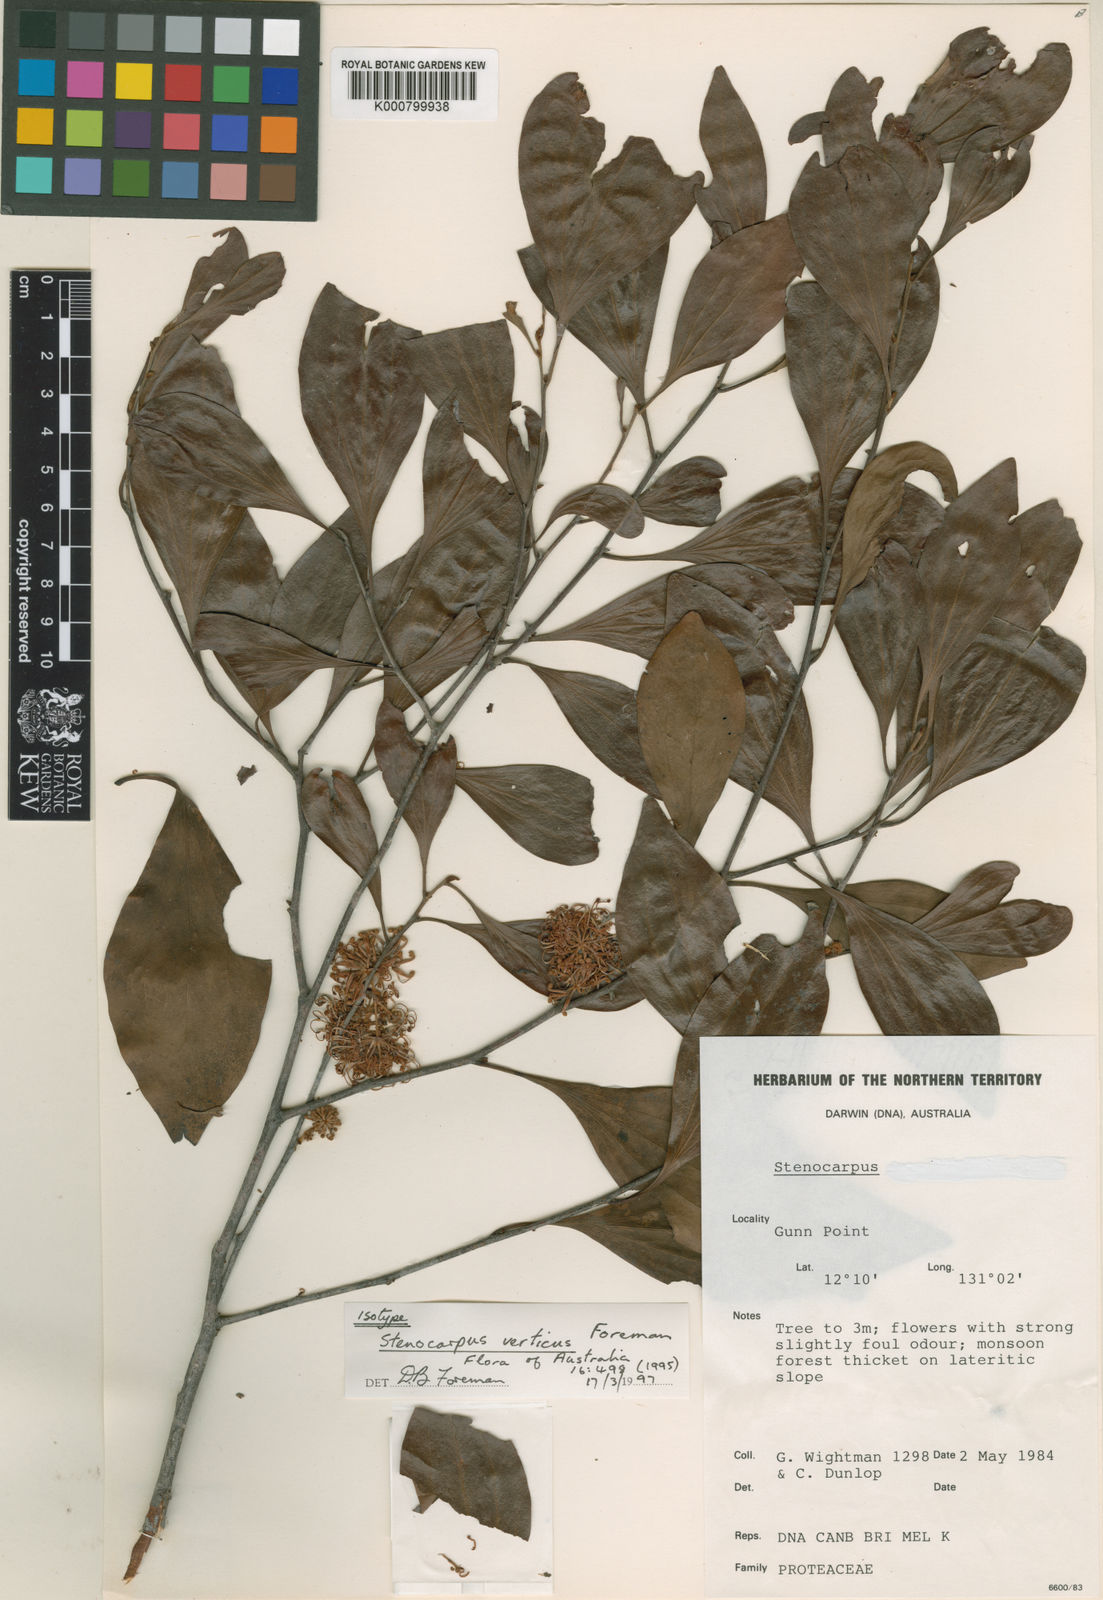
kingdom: Plantae
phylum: Tracheophyta
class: Magnoliopsida
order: Proteales
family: Proteaceae
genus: Stenocarpus
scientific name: Stenocarpus verticis
